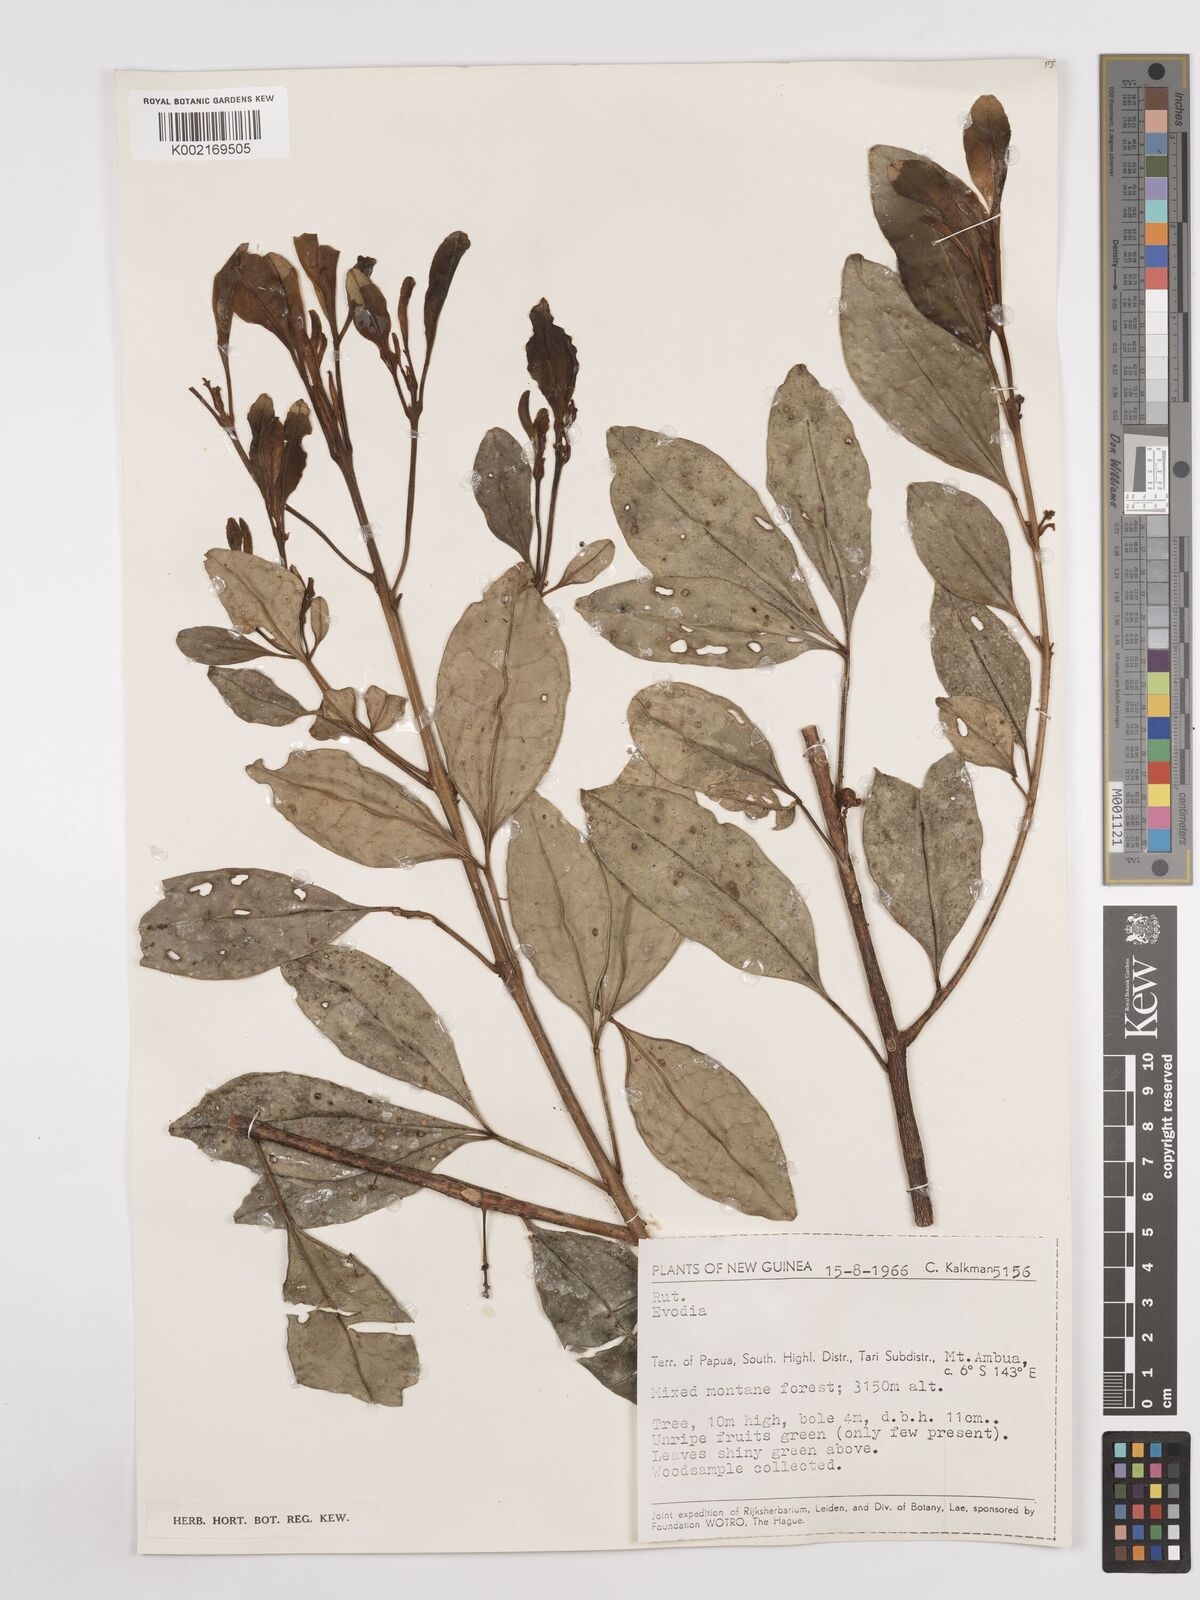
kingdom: Plantae
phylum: Tracheophyta
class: Magnoliopsida
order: Sapindales
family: Rutaceae
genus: Euodia
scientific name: Euodia
